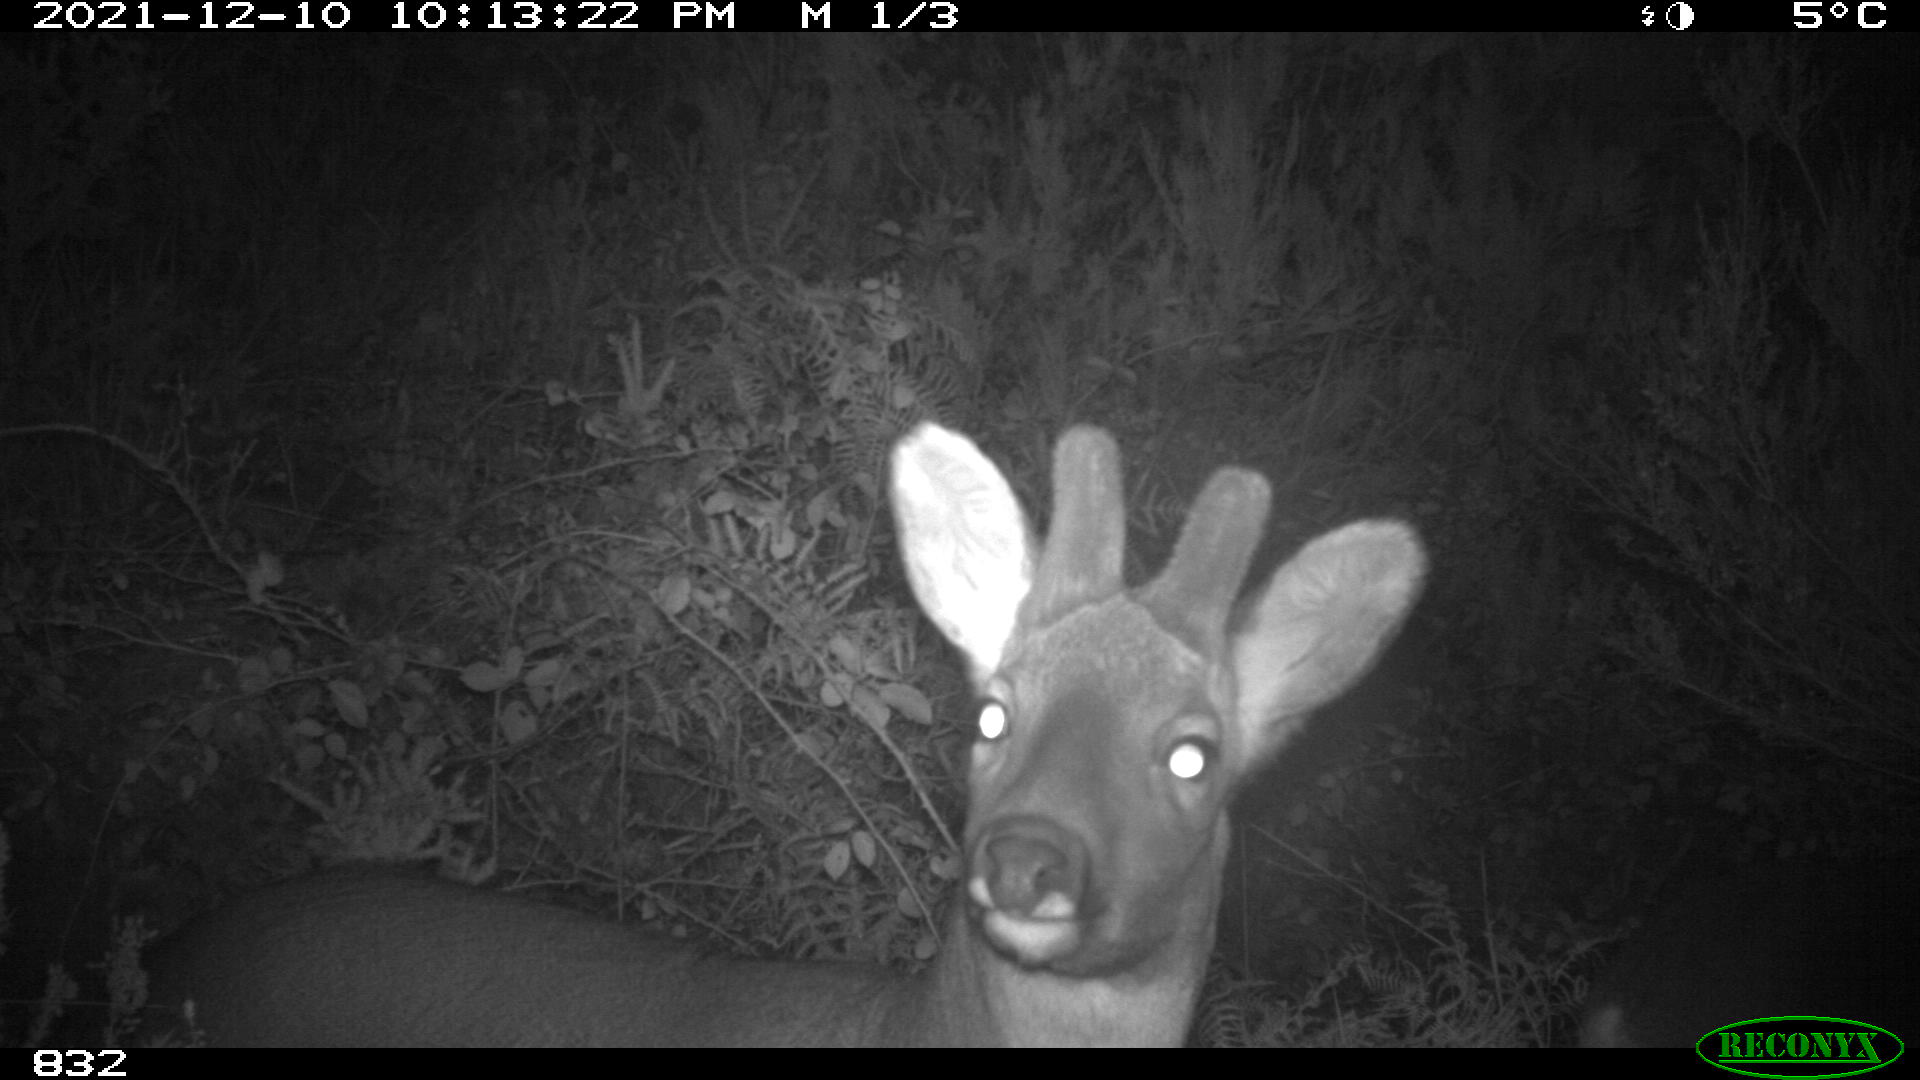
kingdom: Animalia
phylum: Chordata
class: Mammalia
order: Artiodactyla
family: Cervidae
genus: Capreolus
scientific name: Capreolus capreolus
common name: Western roe deer
